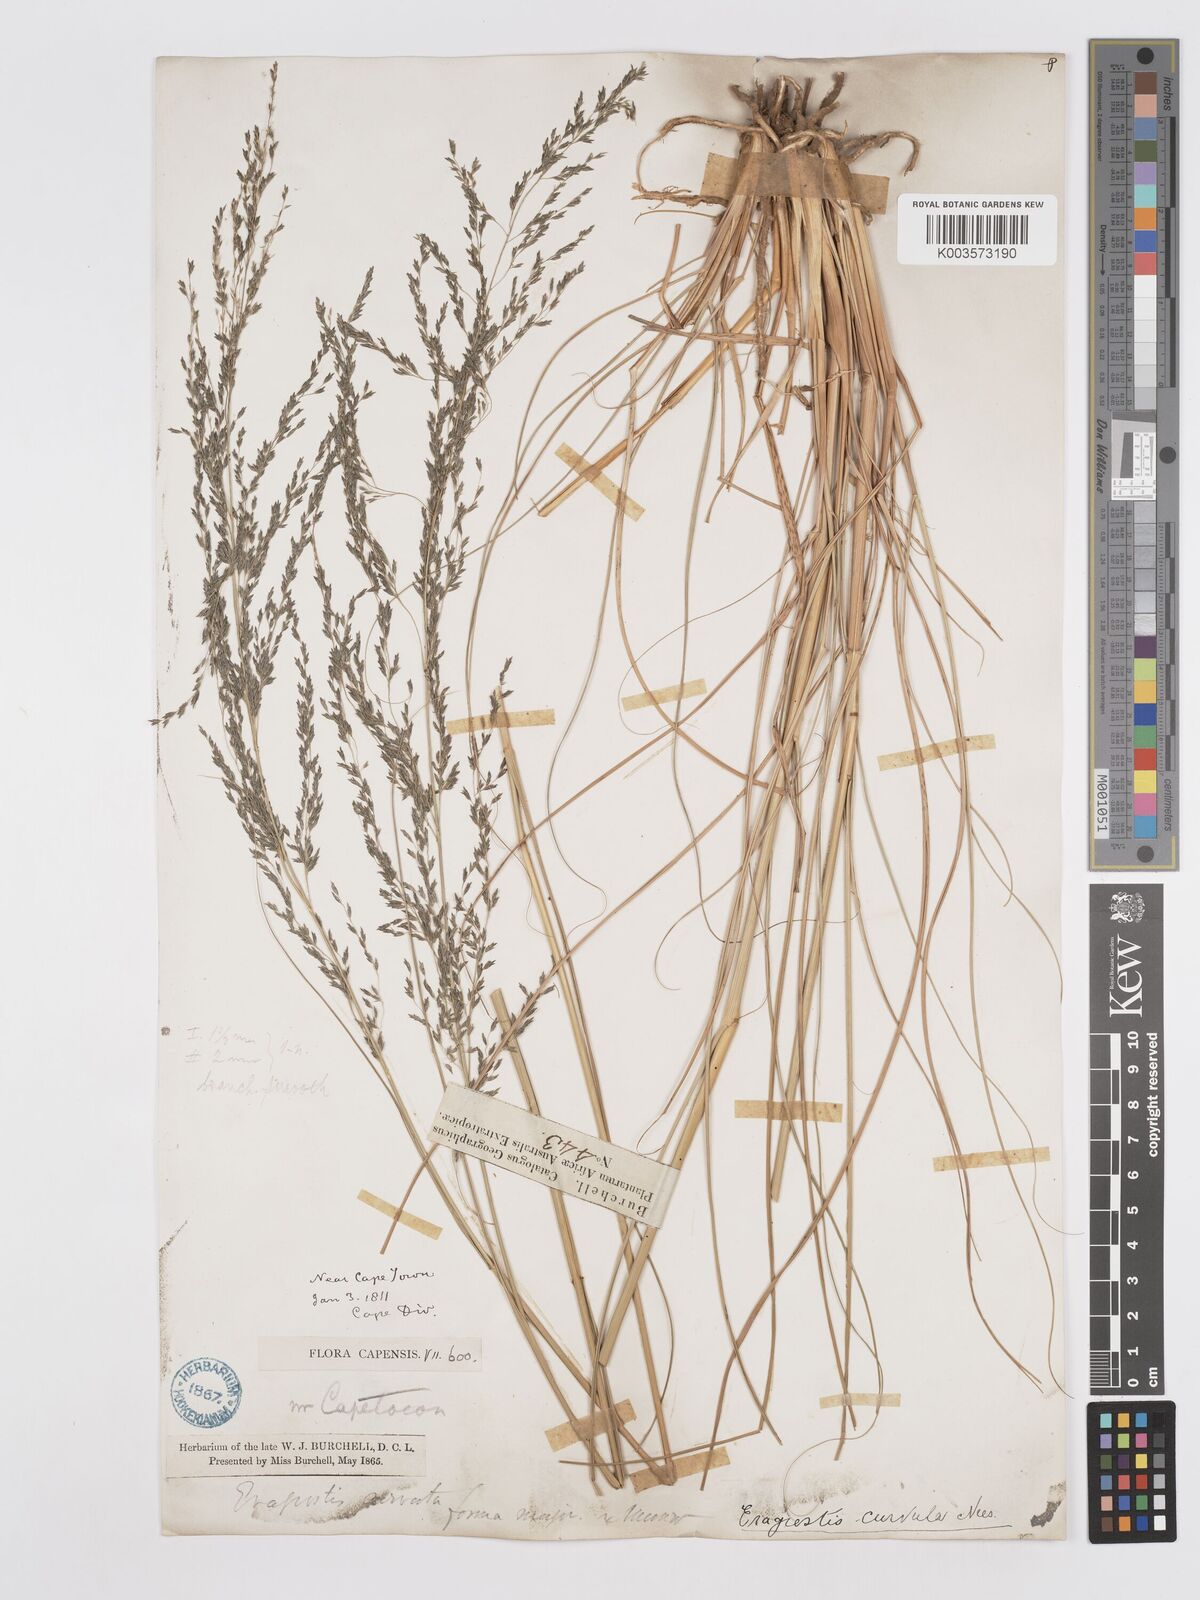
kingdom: Plantae
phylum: Tracheophyta
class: Liliopsida
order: Poales
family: Poaceae
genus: Eragrostis
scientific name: Eragrostis curvula
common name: African love-grass
